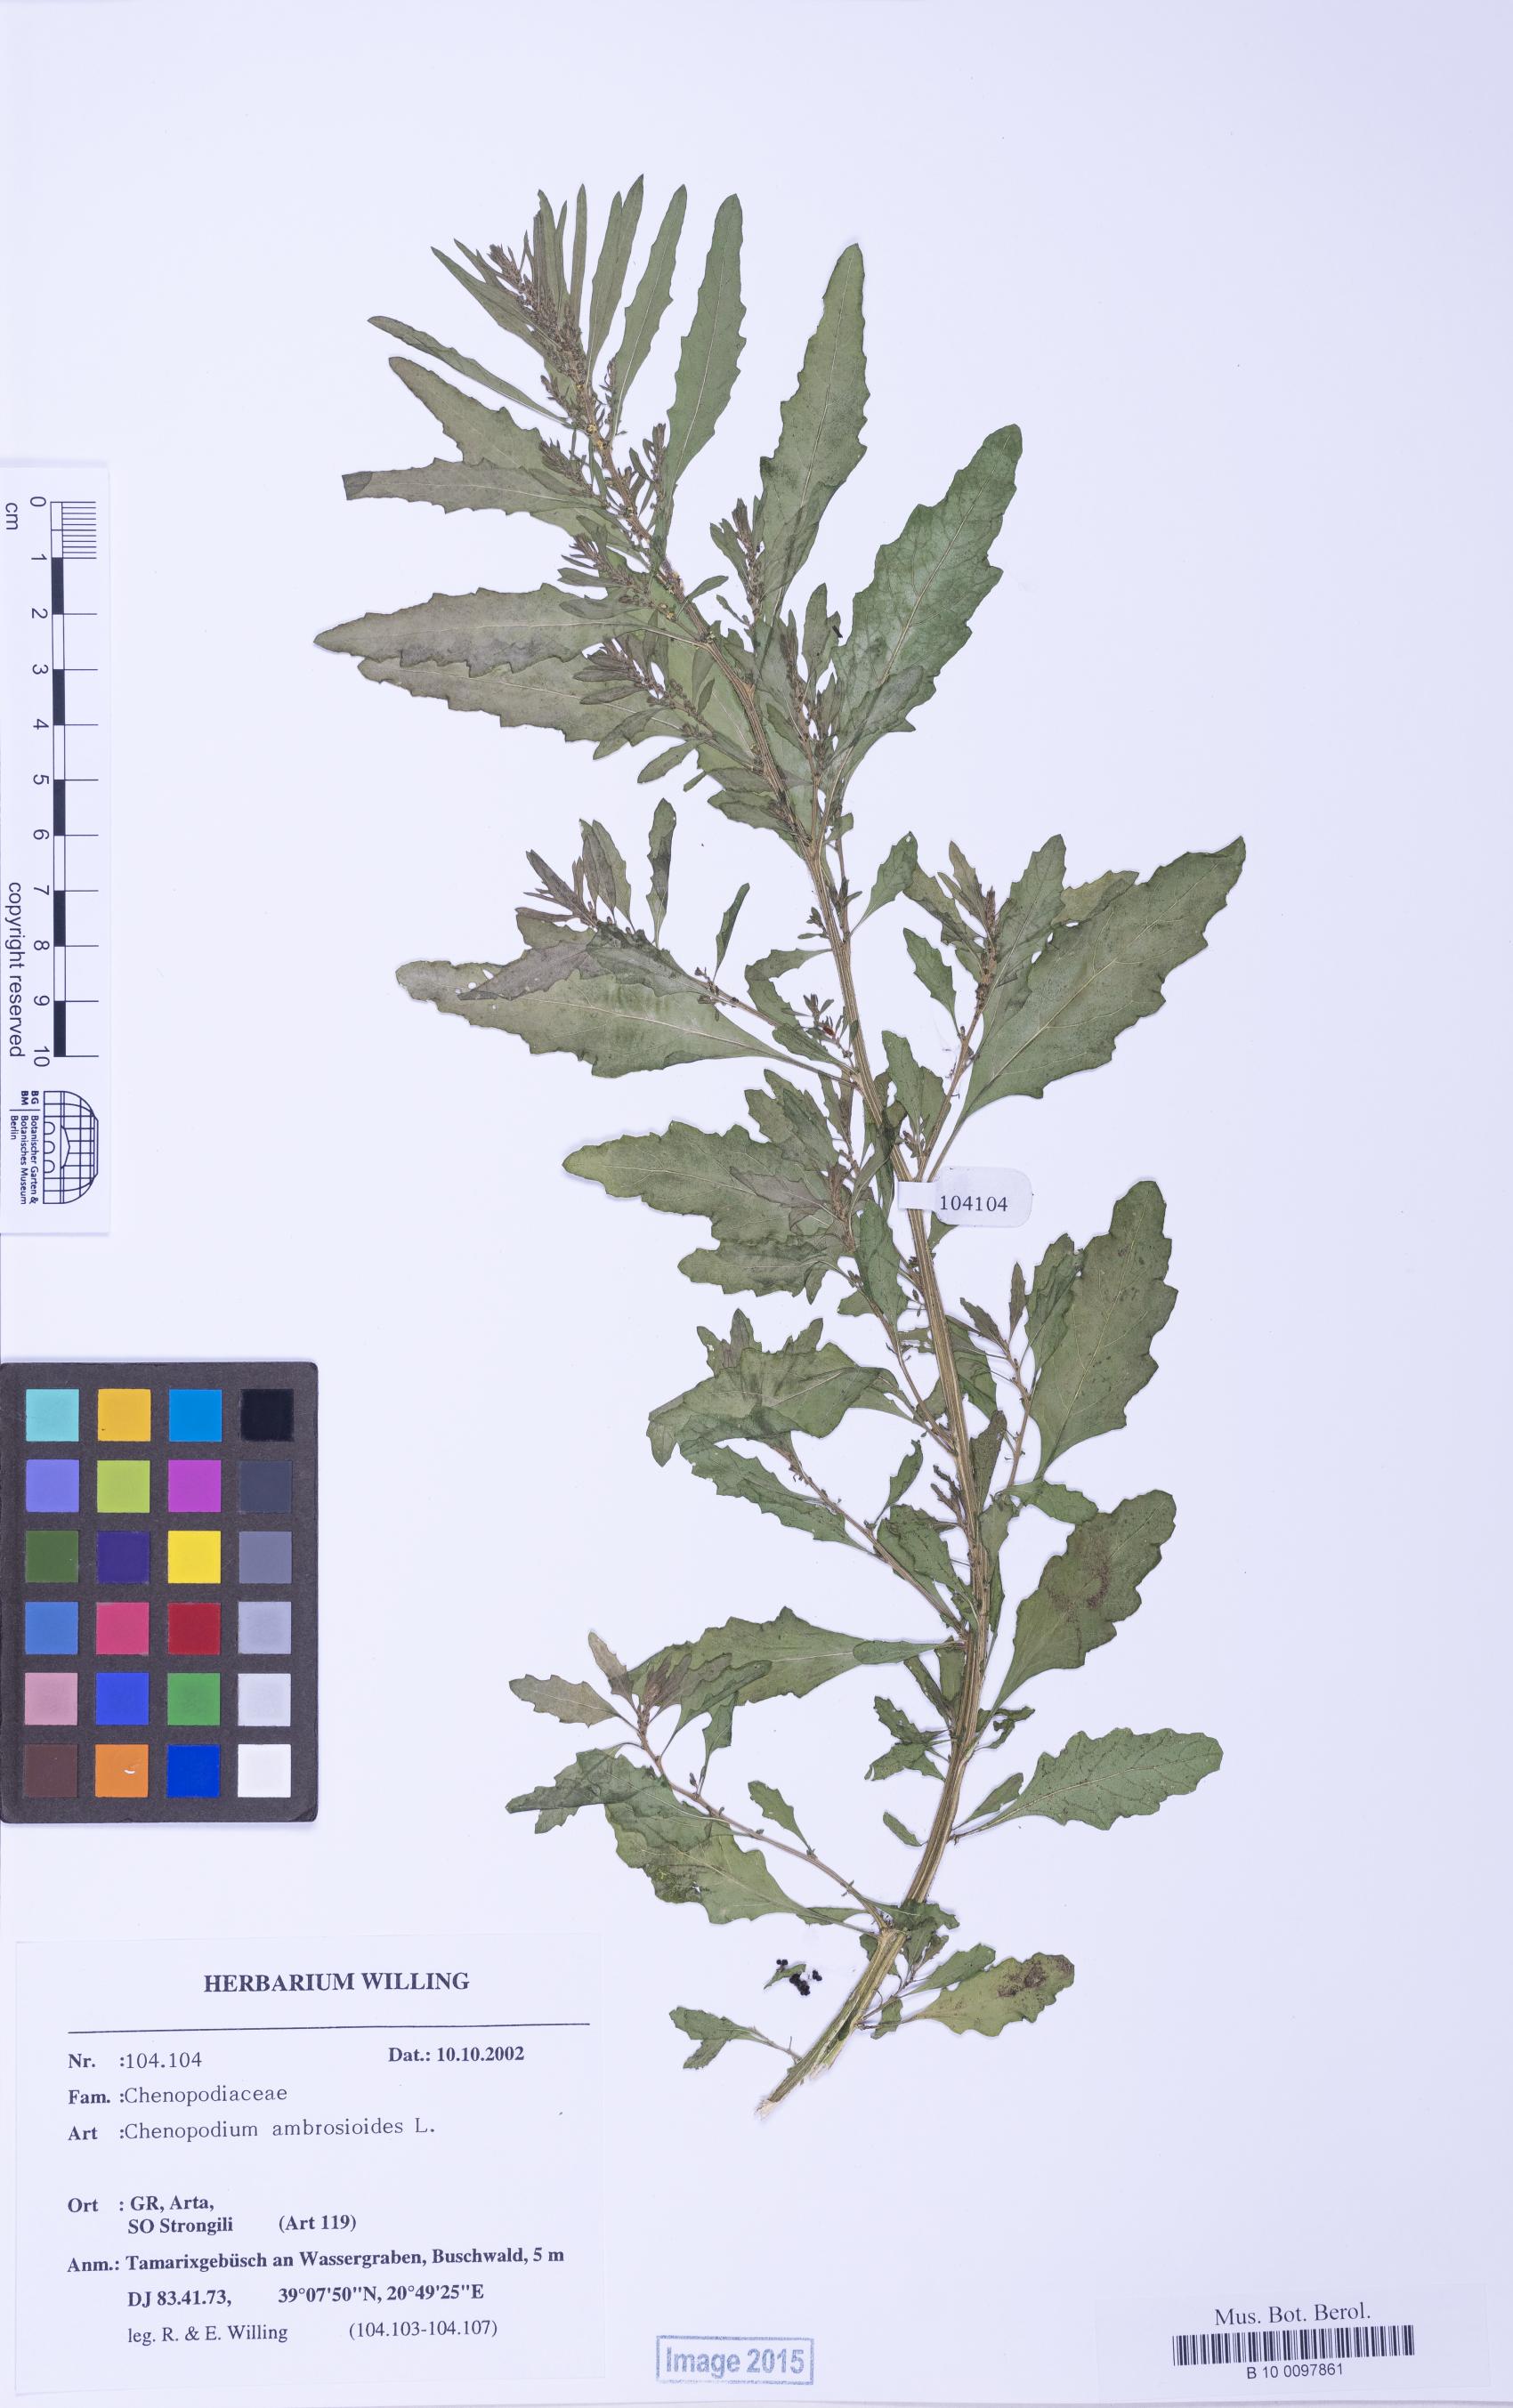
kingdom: Plantae
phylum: Tracheophyta
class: Magnoliopsida
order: Caryophyllales
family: Amaranthaceae
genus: Dysphania
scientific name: Dysphania ambrosioides
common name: Wormseed
